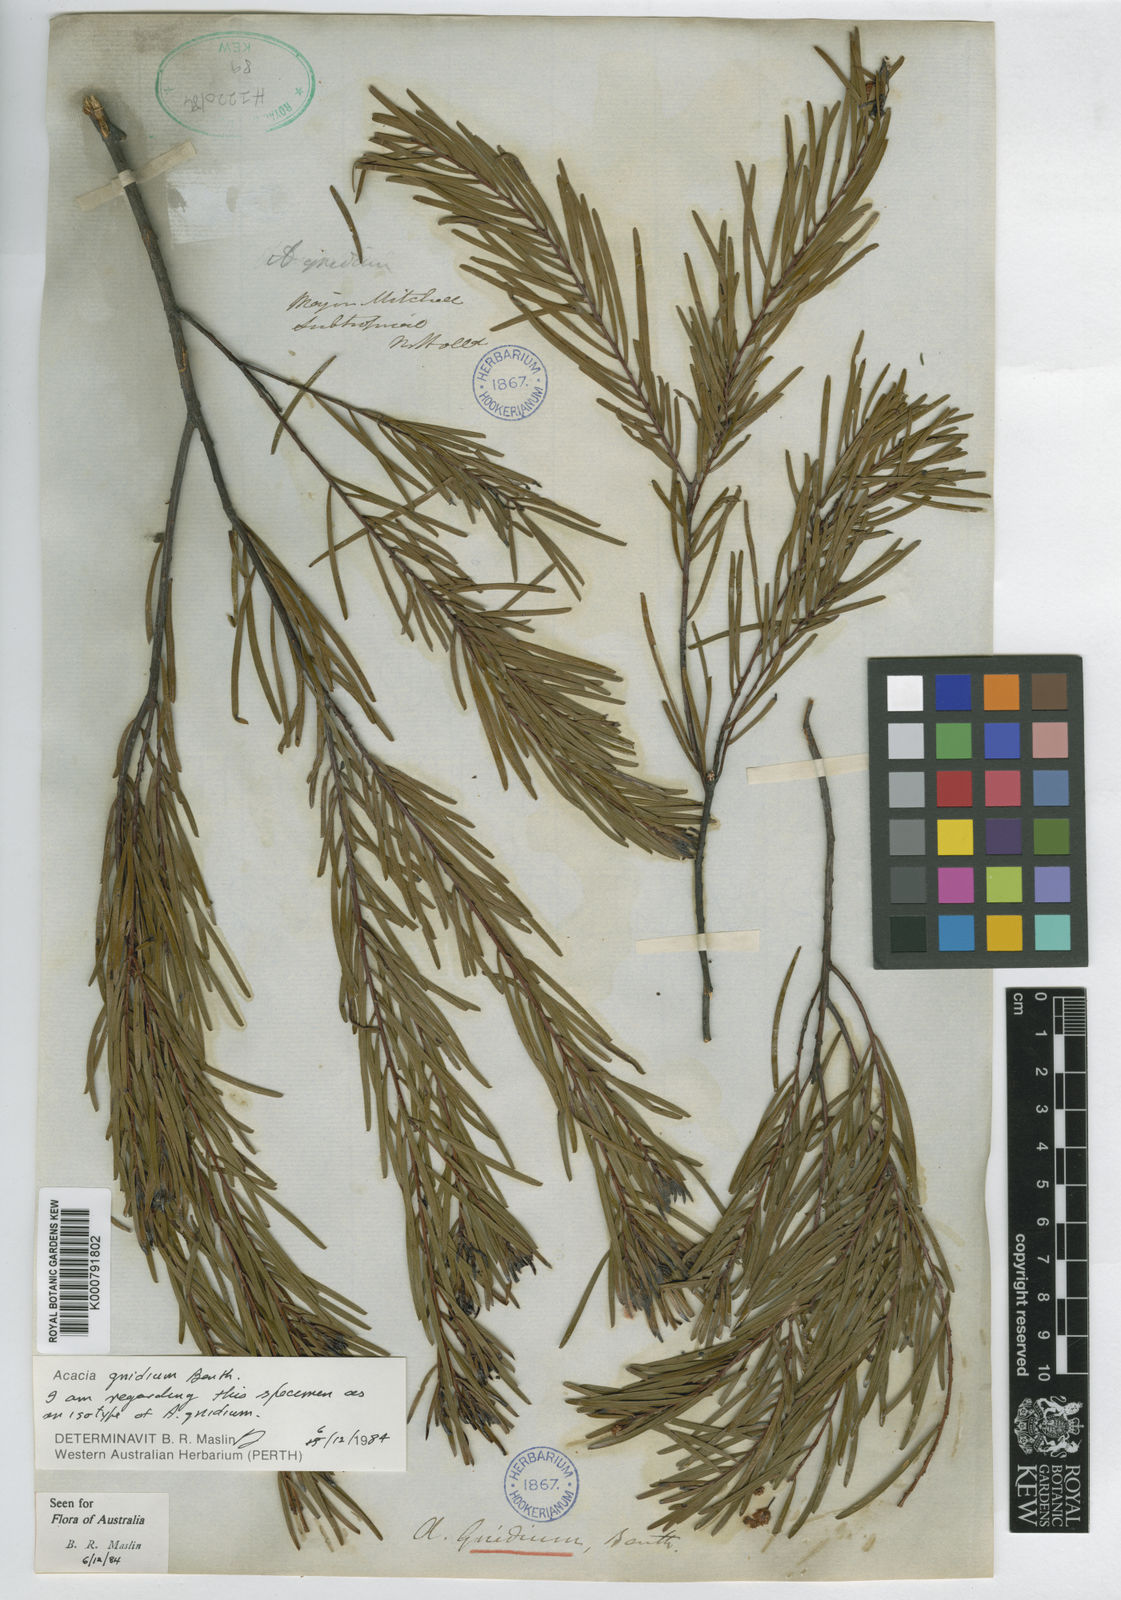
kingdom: Plantae
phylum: Tracheophyta
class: Magnoliopsida
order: Fabales
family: Fabaceae
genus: Acacia
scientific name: Acacia gnidium
